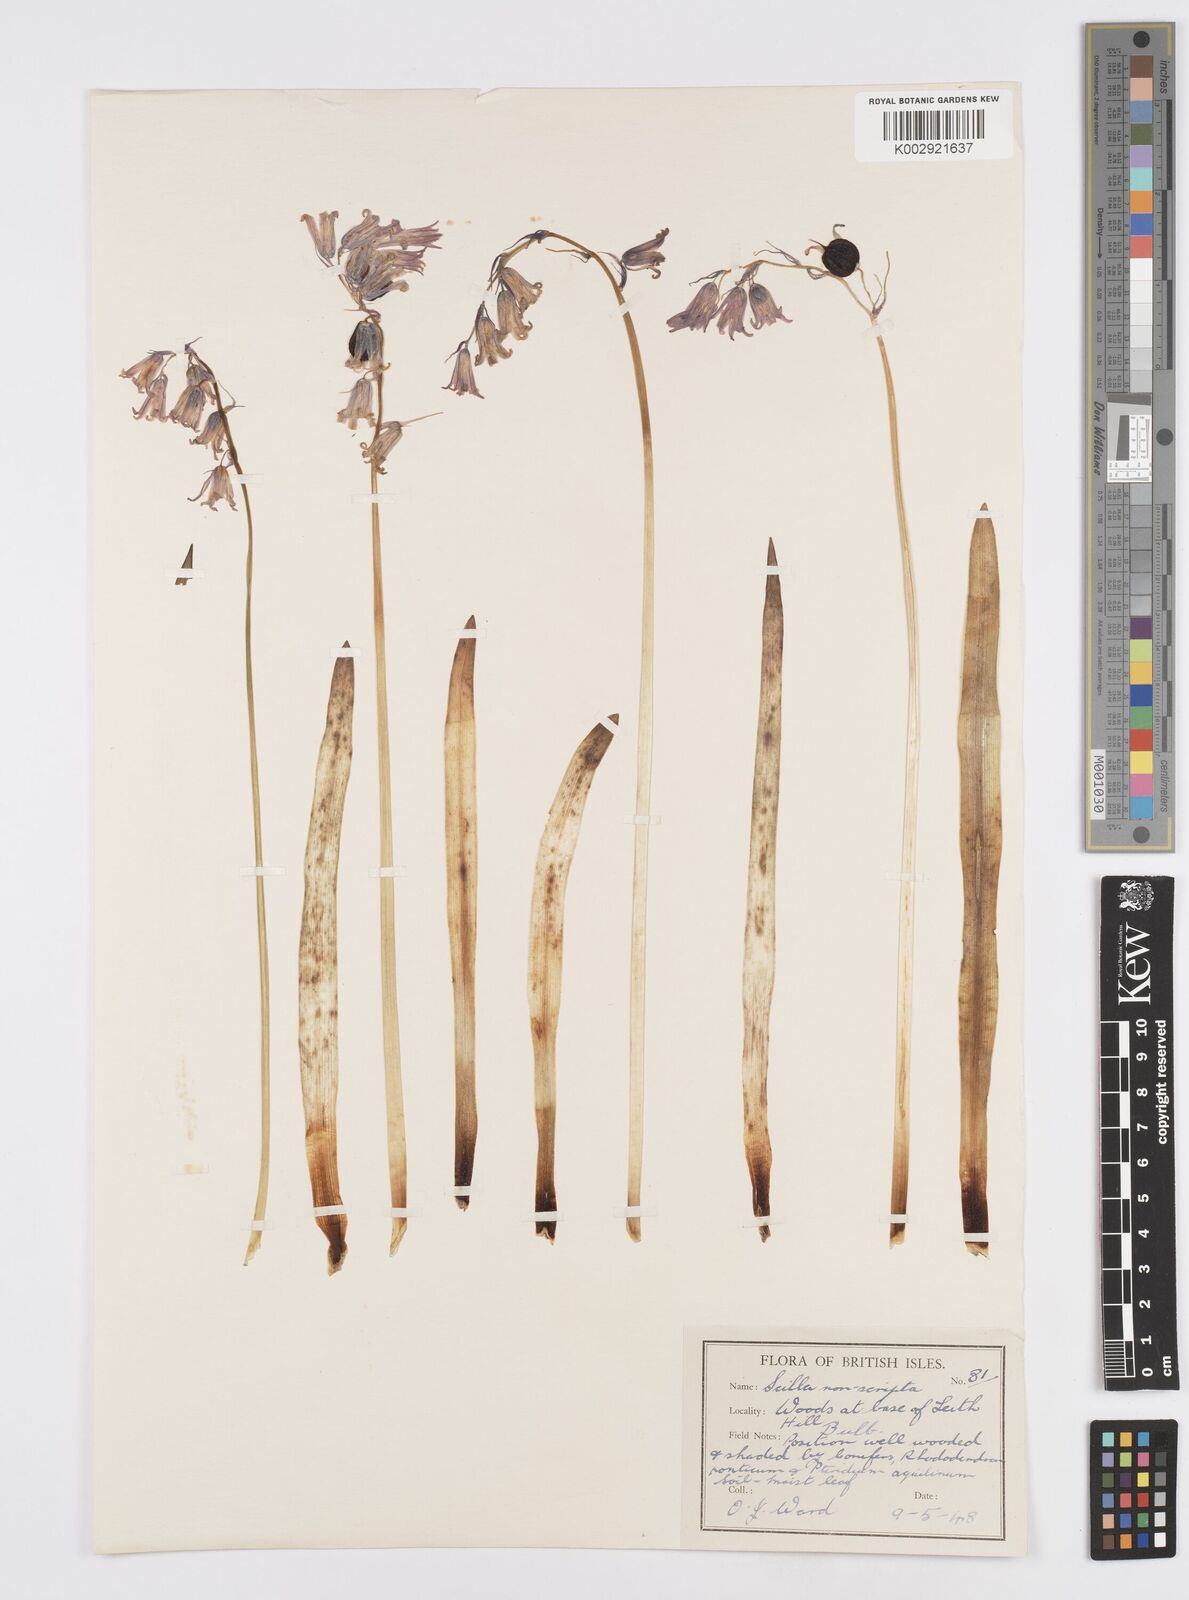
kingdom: Plantae
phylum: Tracheophyta
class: Liliopsida
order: Asparagales
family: Asparagaceae
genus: Hyacinthoides
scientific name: Hyacinthoides non-scripta
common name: Bluebell
